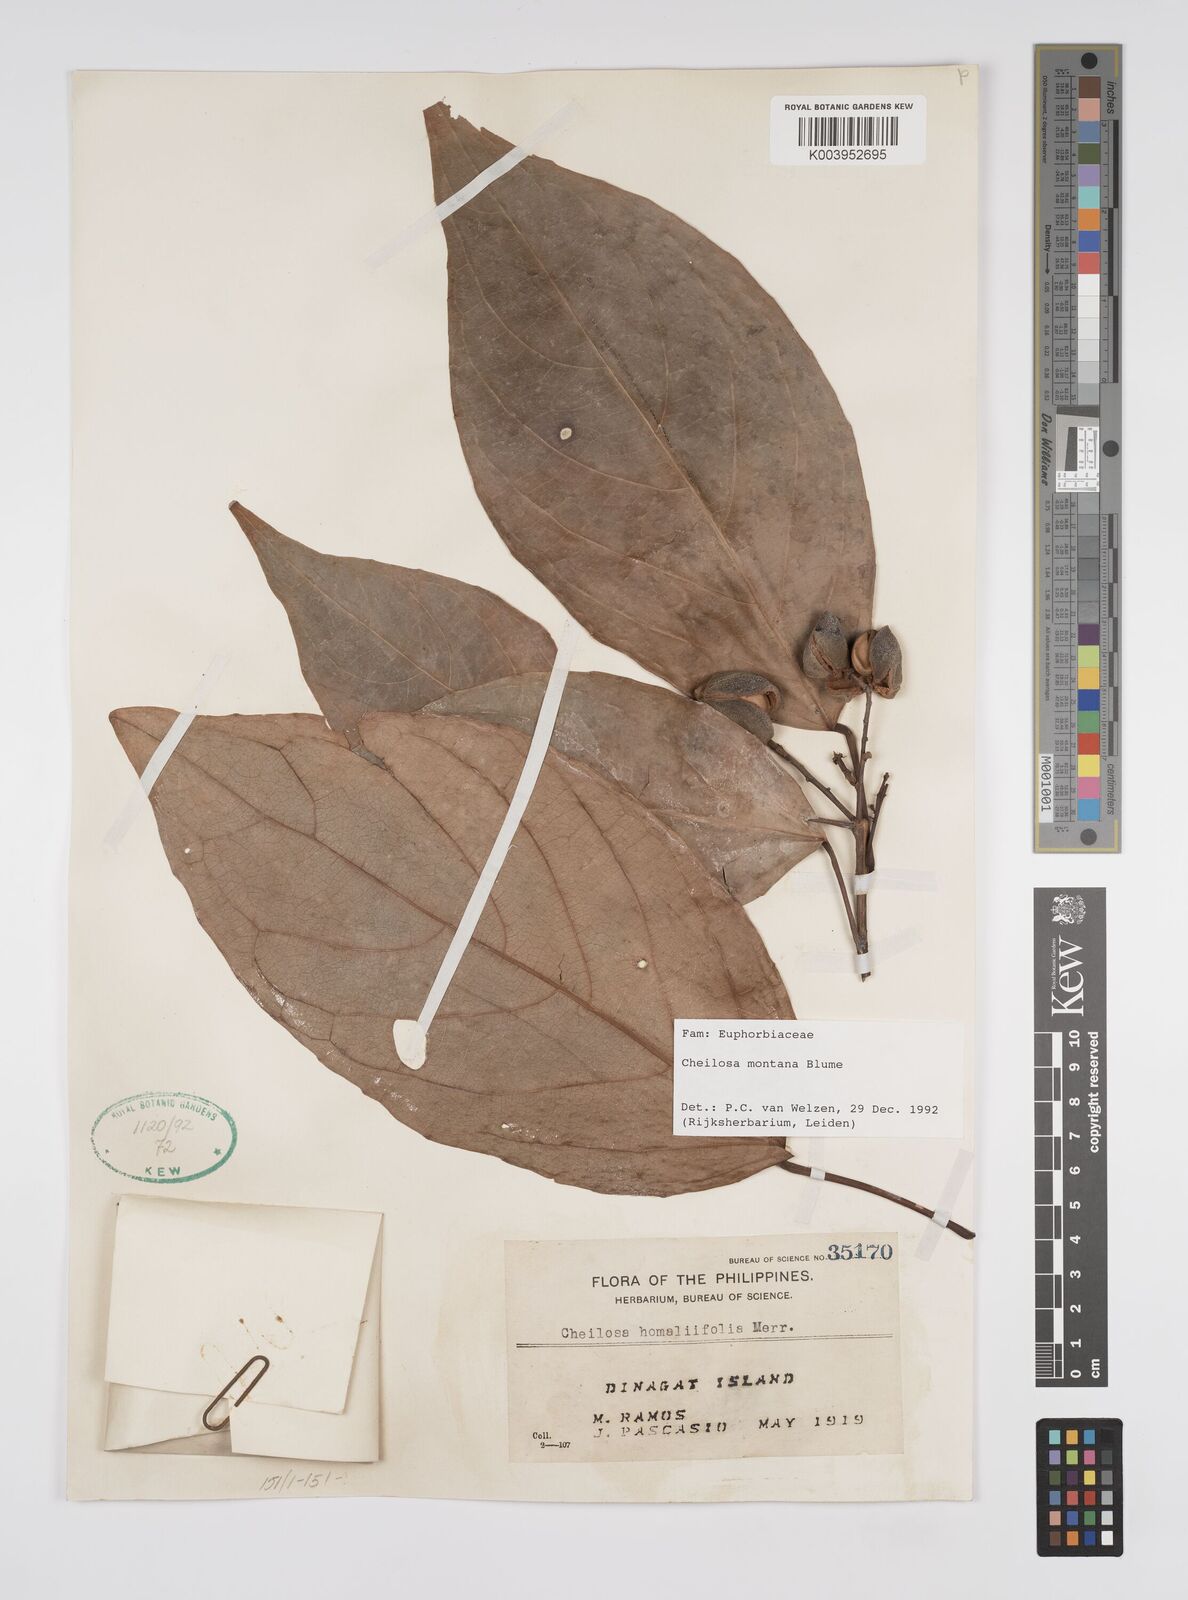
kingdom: Plantae
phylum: Tracheophyta
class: Magnoliopsida
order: Malpighiales
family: Euphorbiaceae
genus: Cheilosa
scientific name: Cheilosa montana
